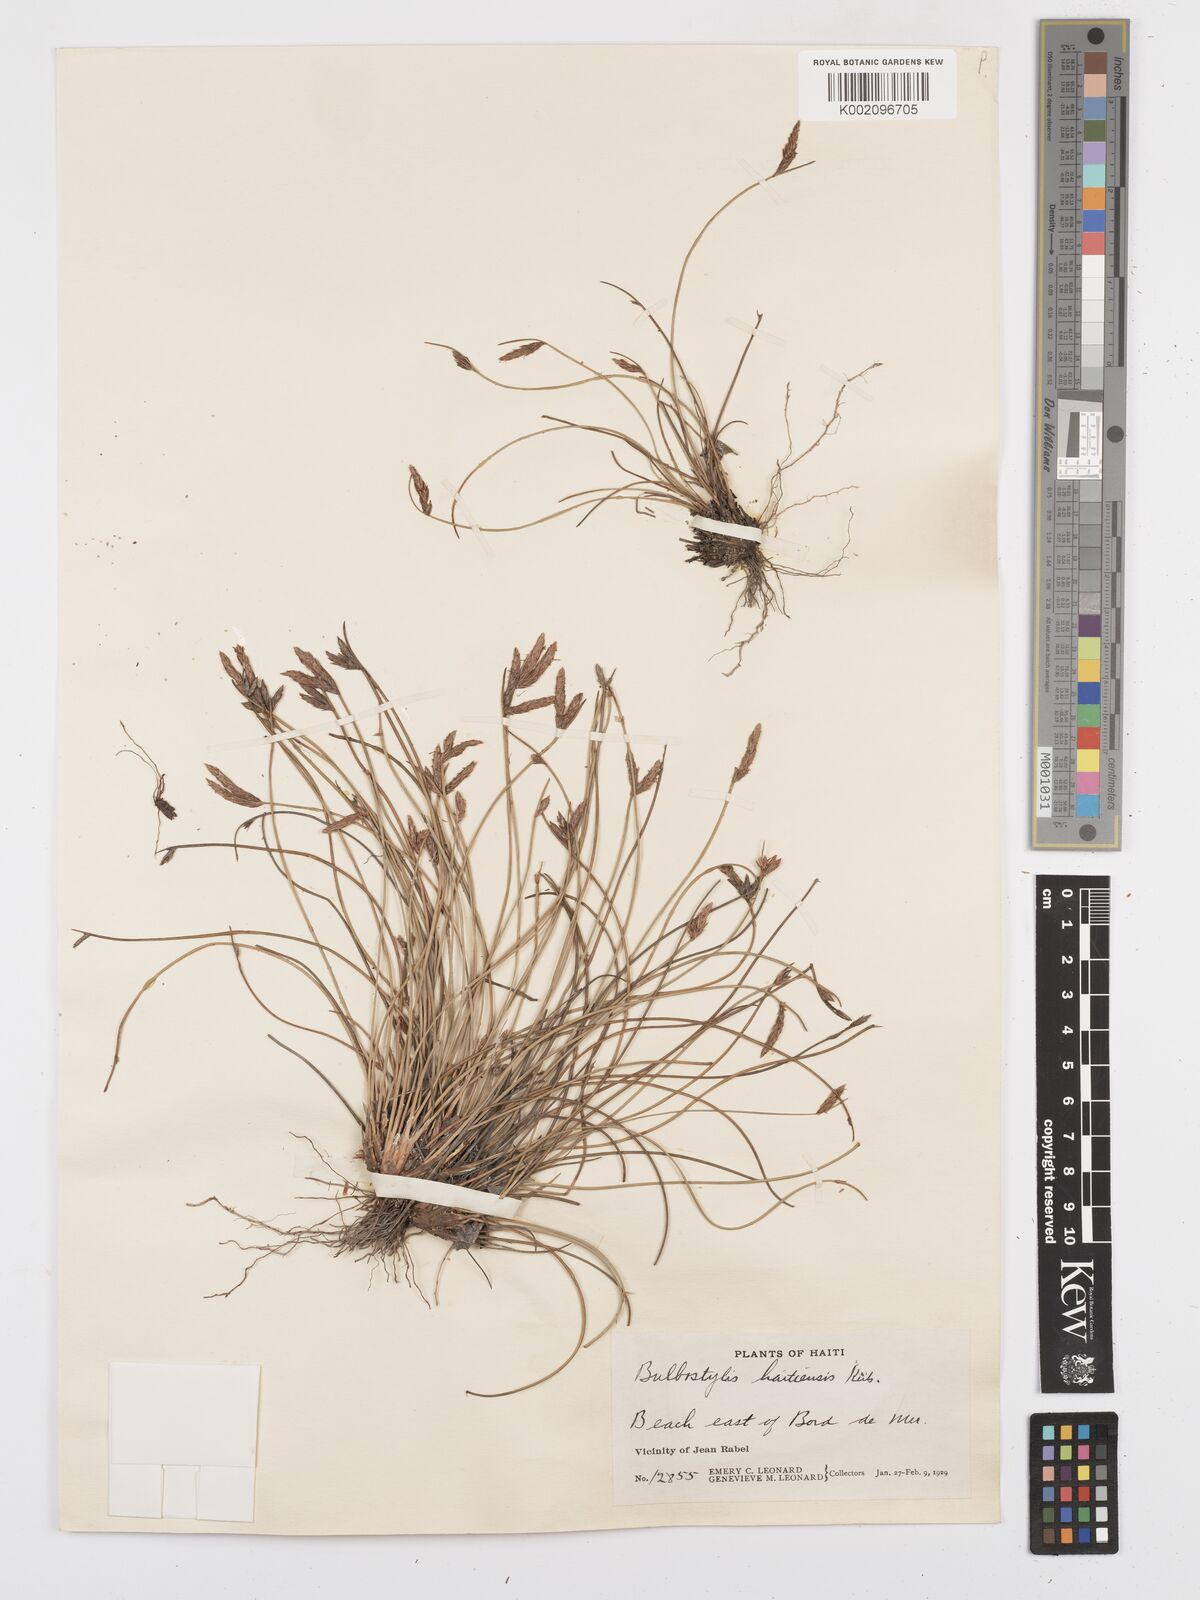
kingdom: Plantae
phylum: Tracheophyta
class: Liliopsida
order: Poales
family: Cyperaceae
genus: Bulbostylis
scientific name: Bulbostylis floccosa
